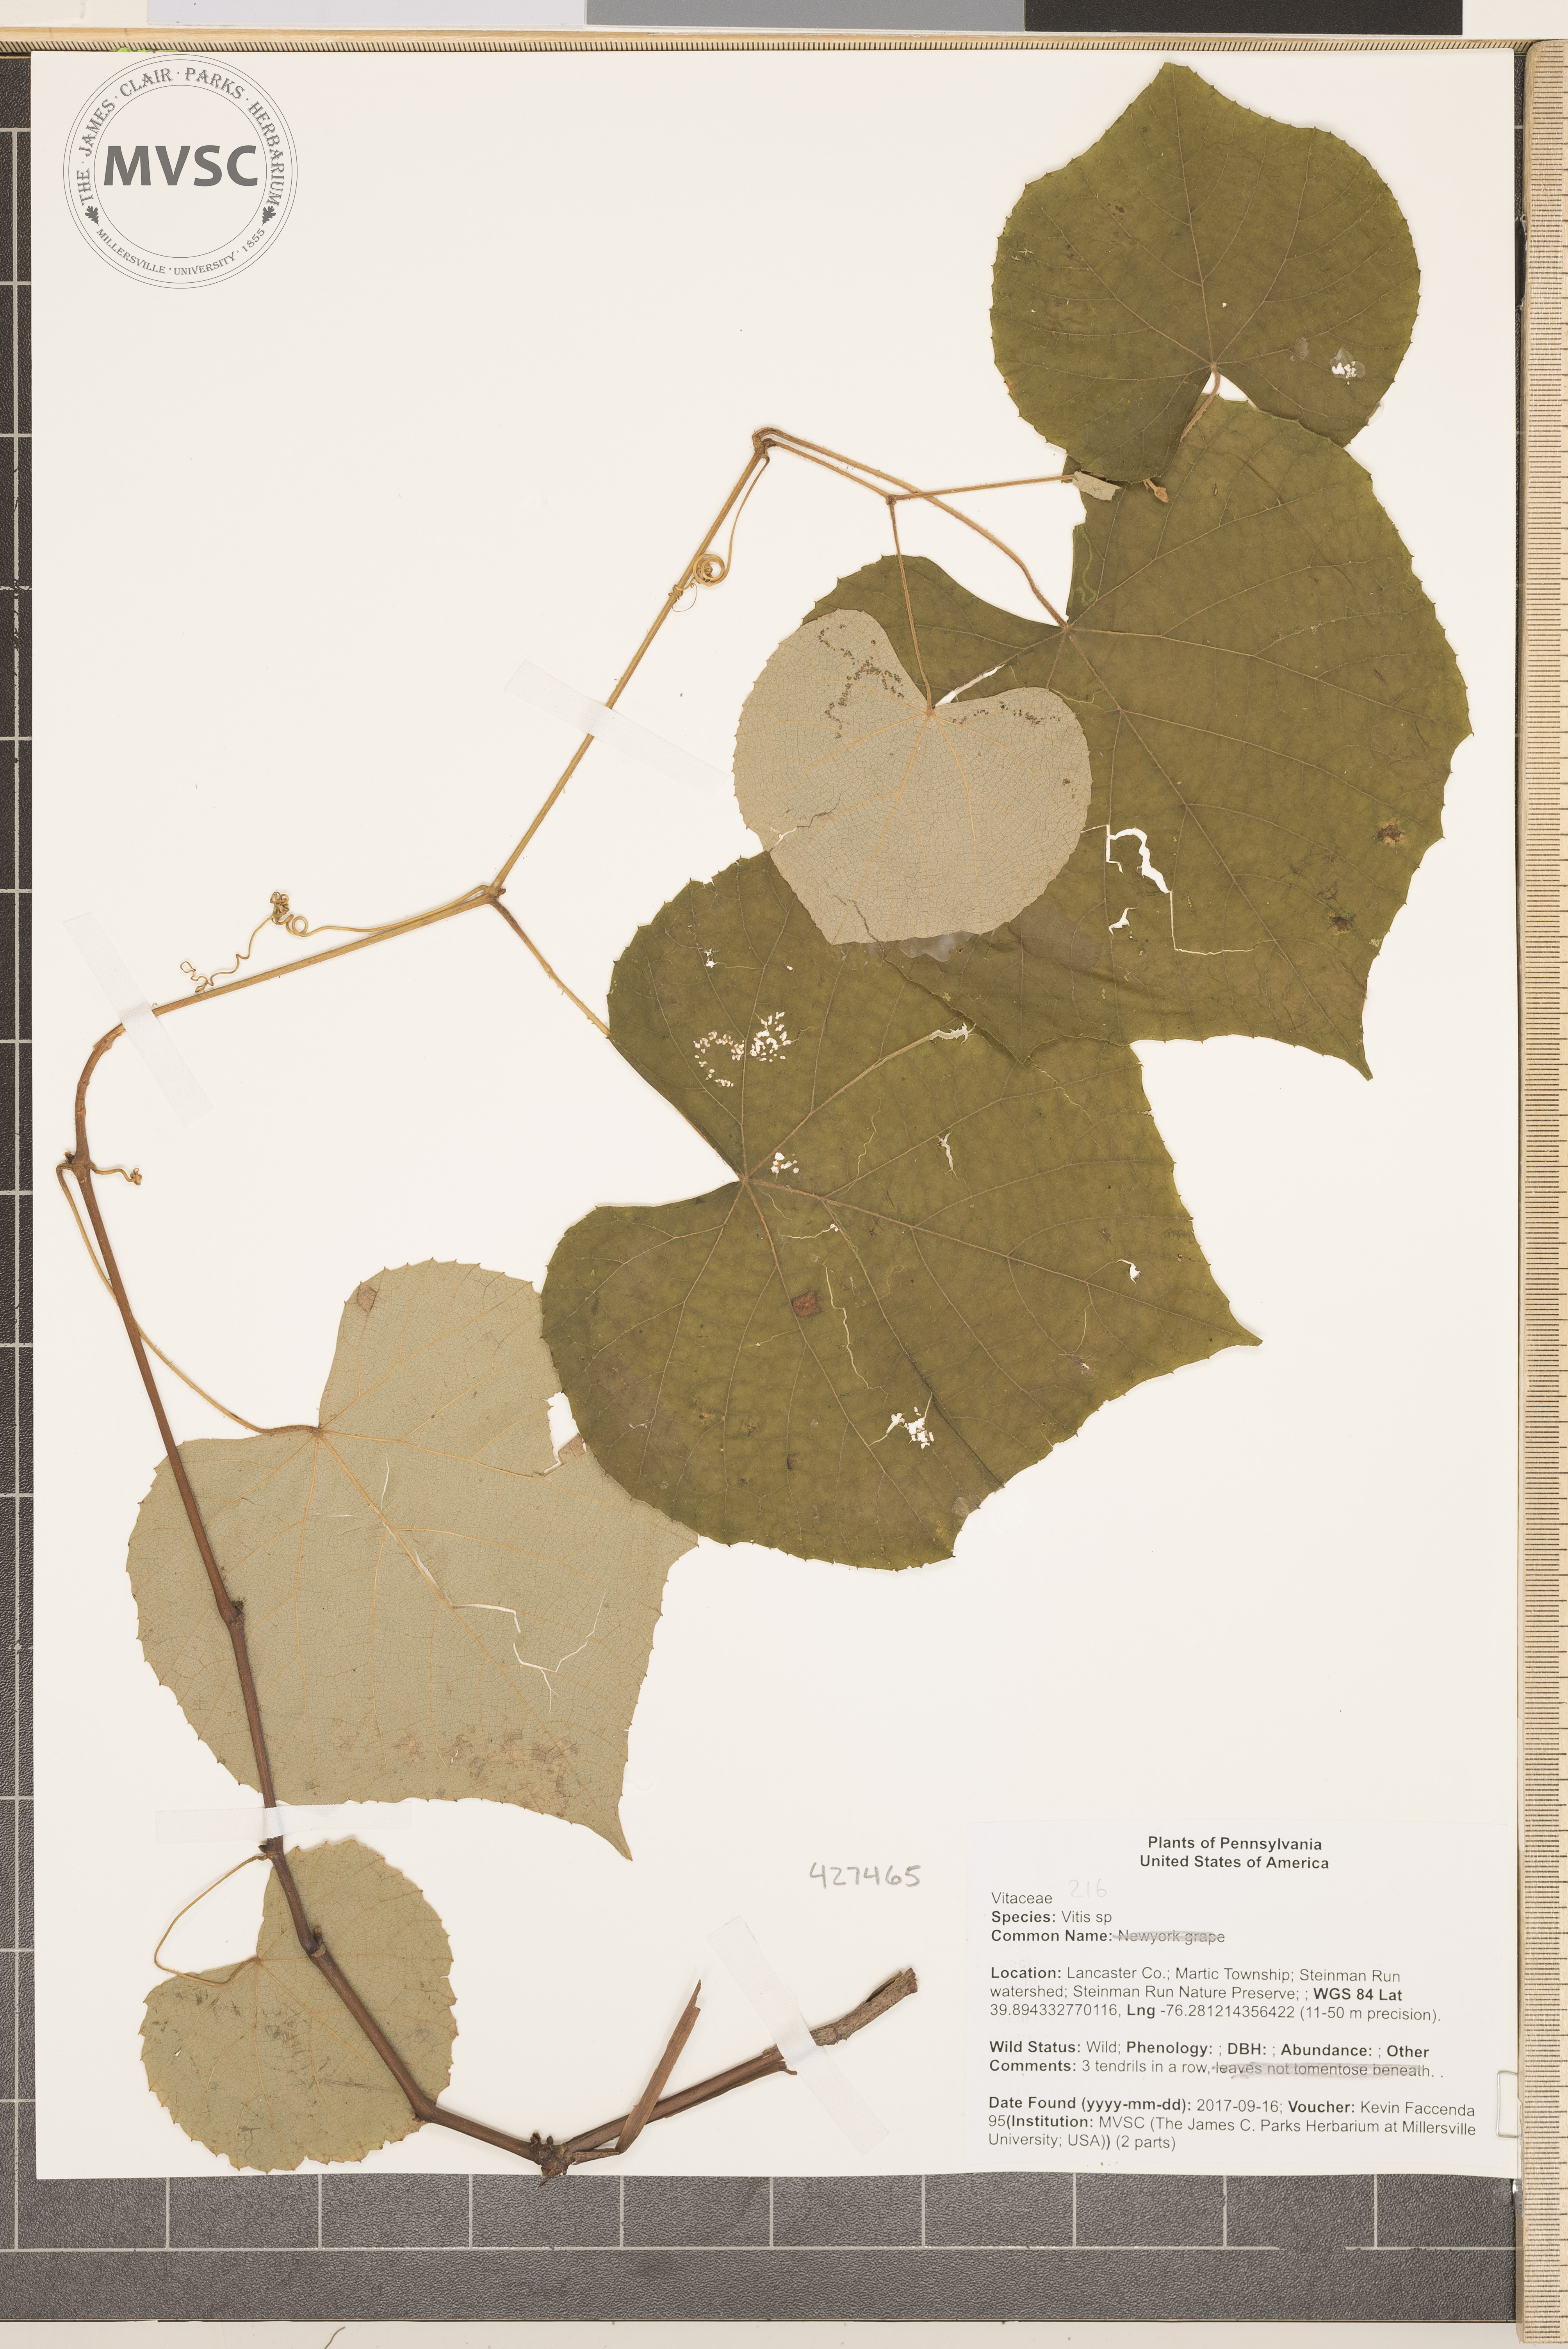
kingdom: Plantae
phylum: Tracheophyta
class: Magnoliopsida
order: Vitales
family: Vitaceae
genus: Vitis
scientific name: Vitis
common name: grape
